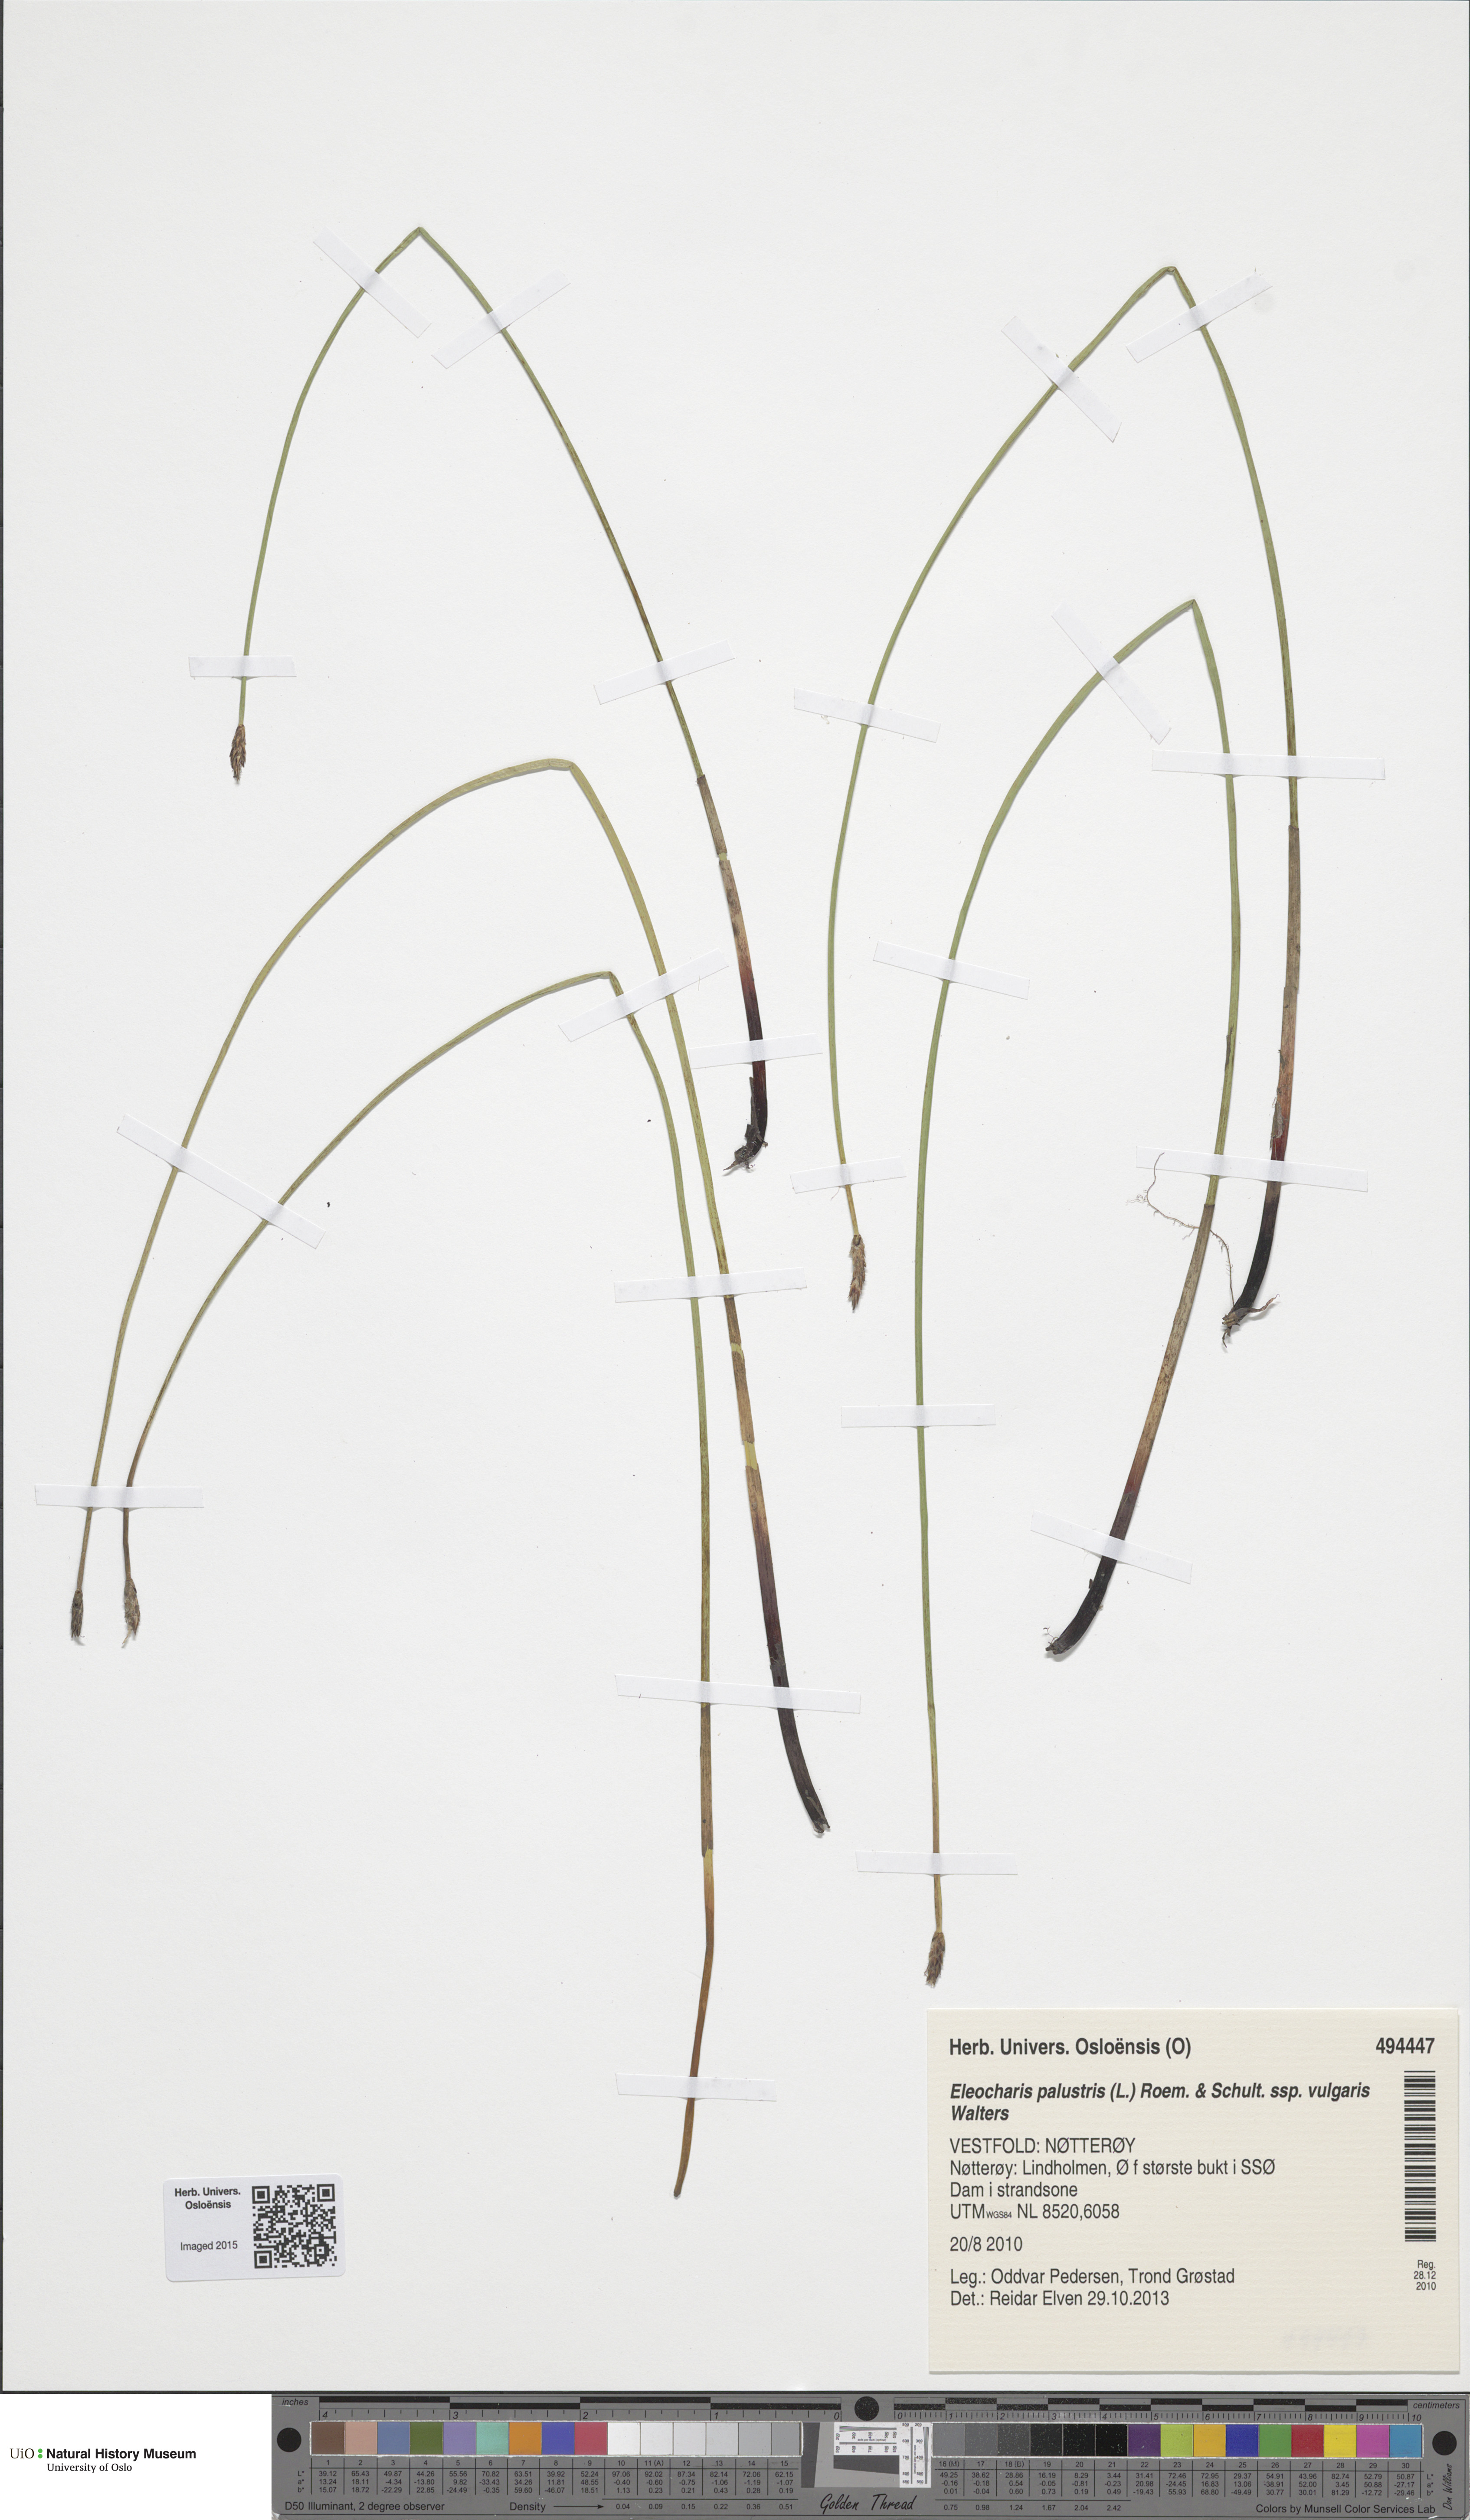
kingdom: Plantae
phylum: Tracheophyta
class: Liliopsida
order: Poales
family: Cyperaceae
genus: Eleocharis
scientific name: Eleocharis palustris
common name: Common spike-rush
